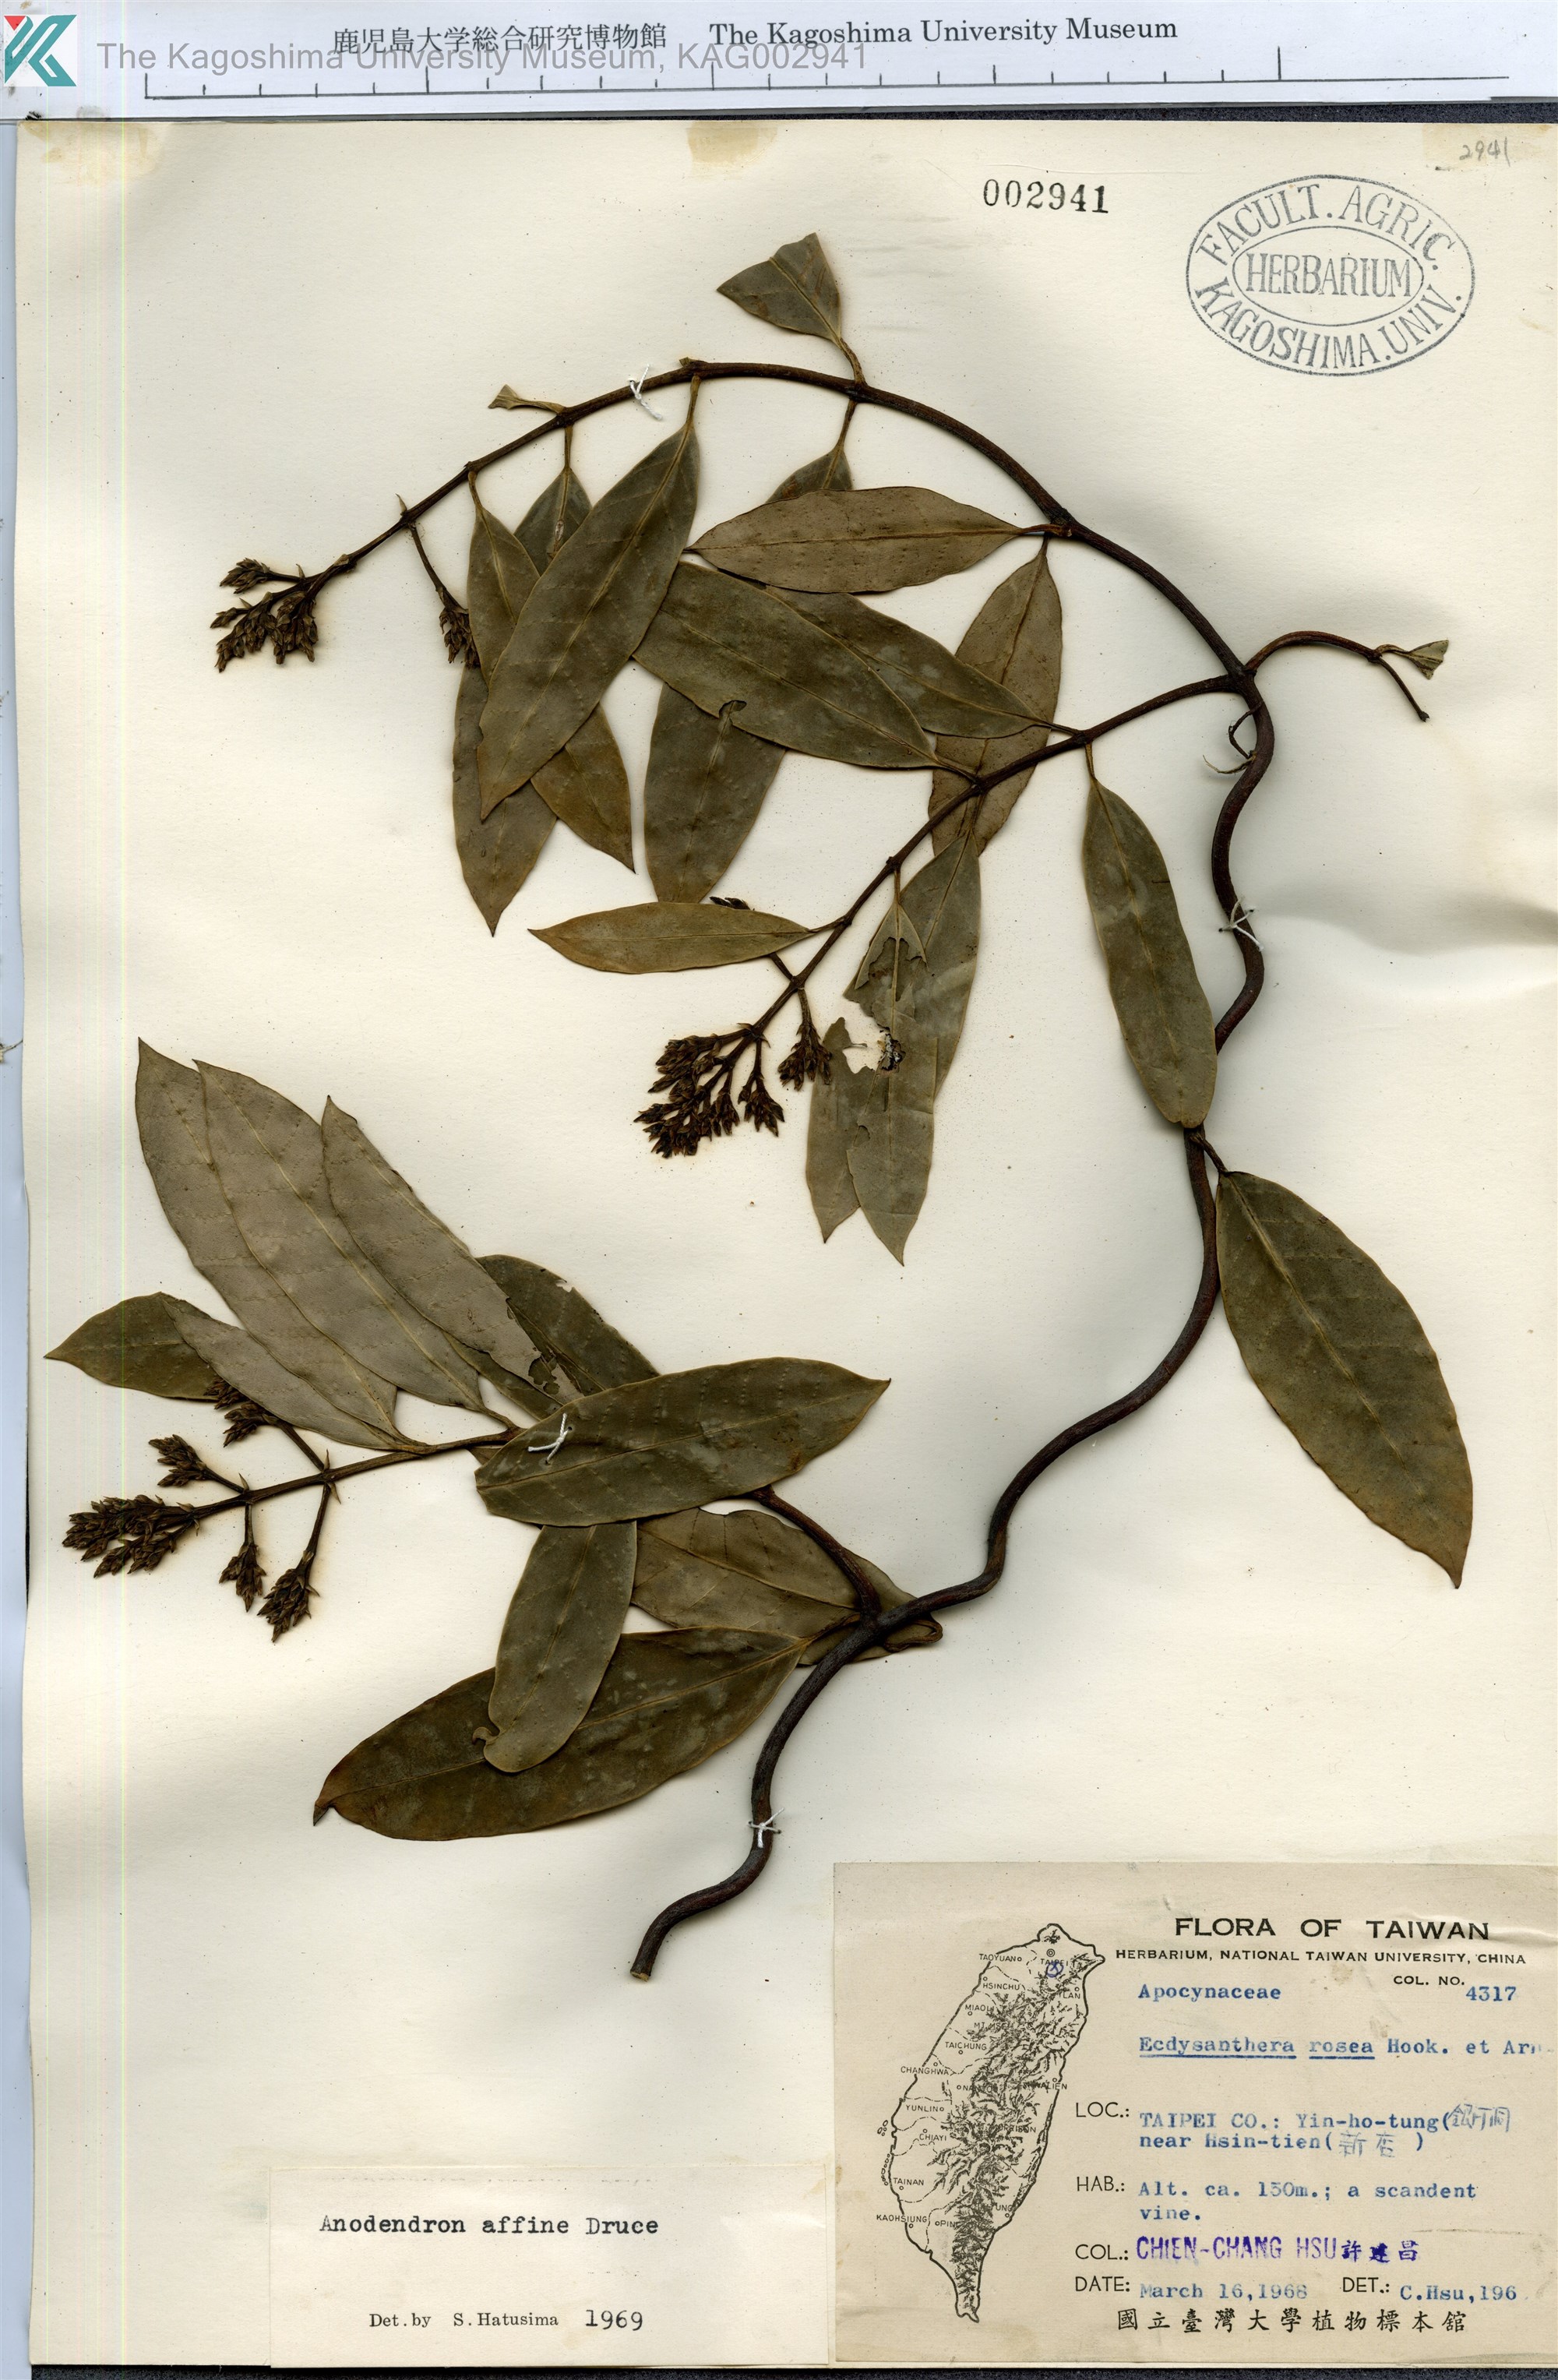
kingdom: Plantae
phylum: Tracheophyta
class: Magnoliopsida
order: Gentianales
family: Apocynaceae
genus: Anodendron
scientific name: Anodendron affine
